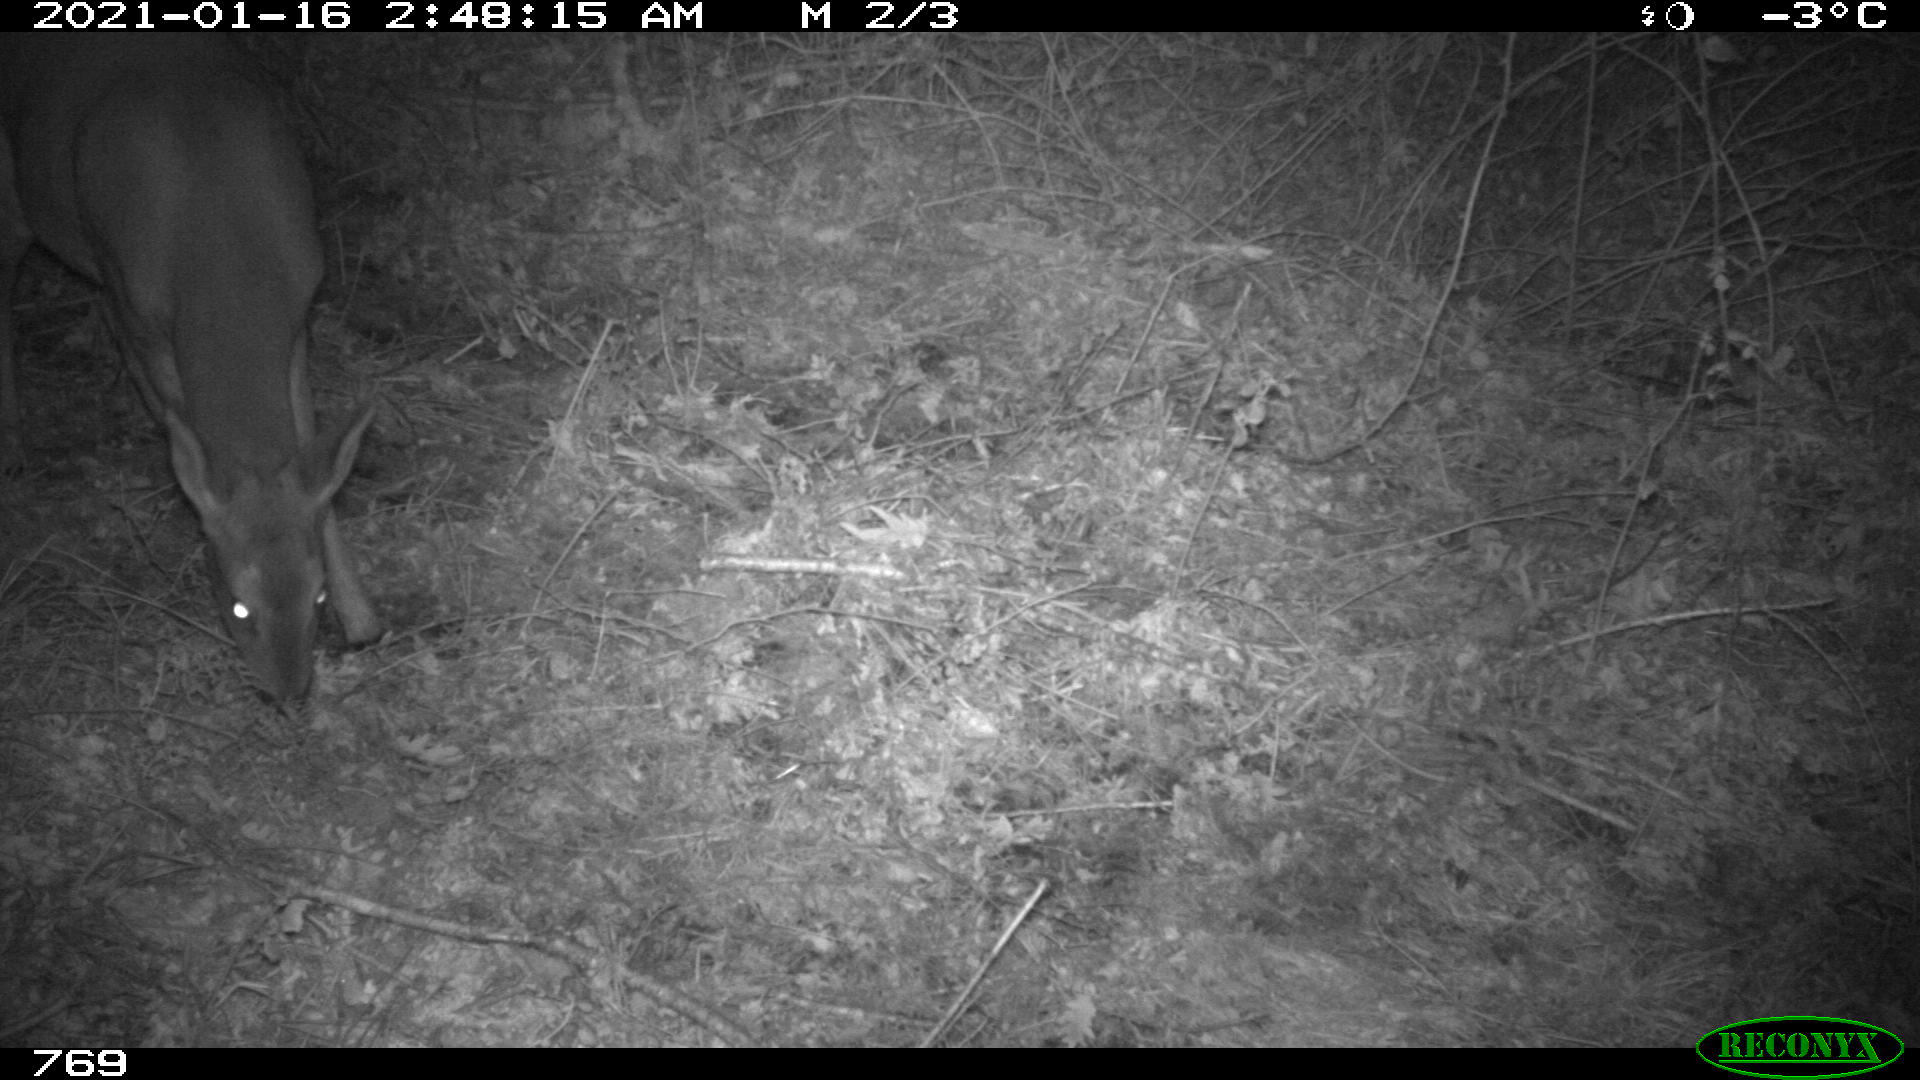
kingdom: Animalia
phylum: Chordata
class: Mammalia
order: Artiodactyla
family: Cervidae
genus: Capreolus
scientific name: Capreolus capreolus
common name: Western roe deer
